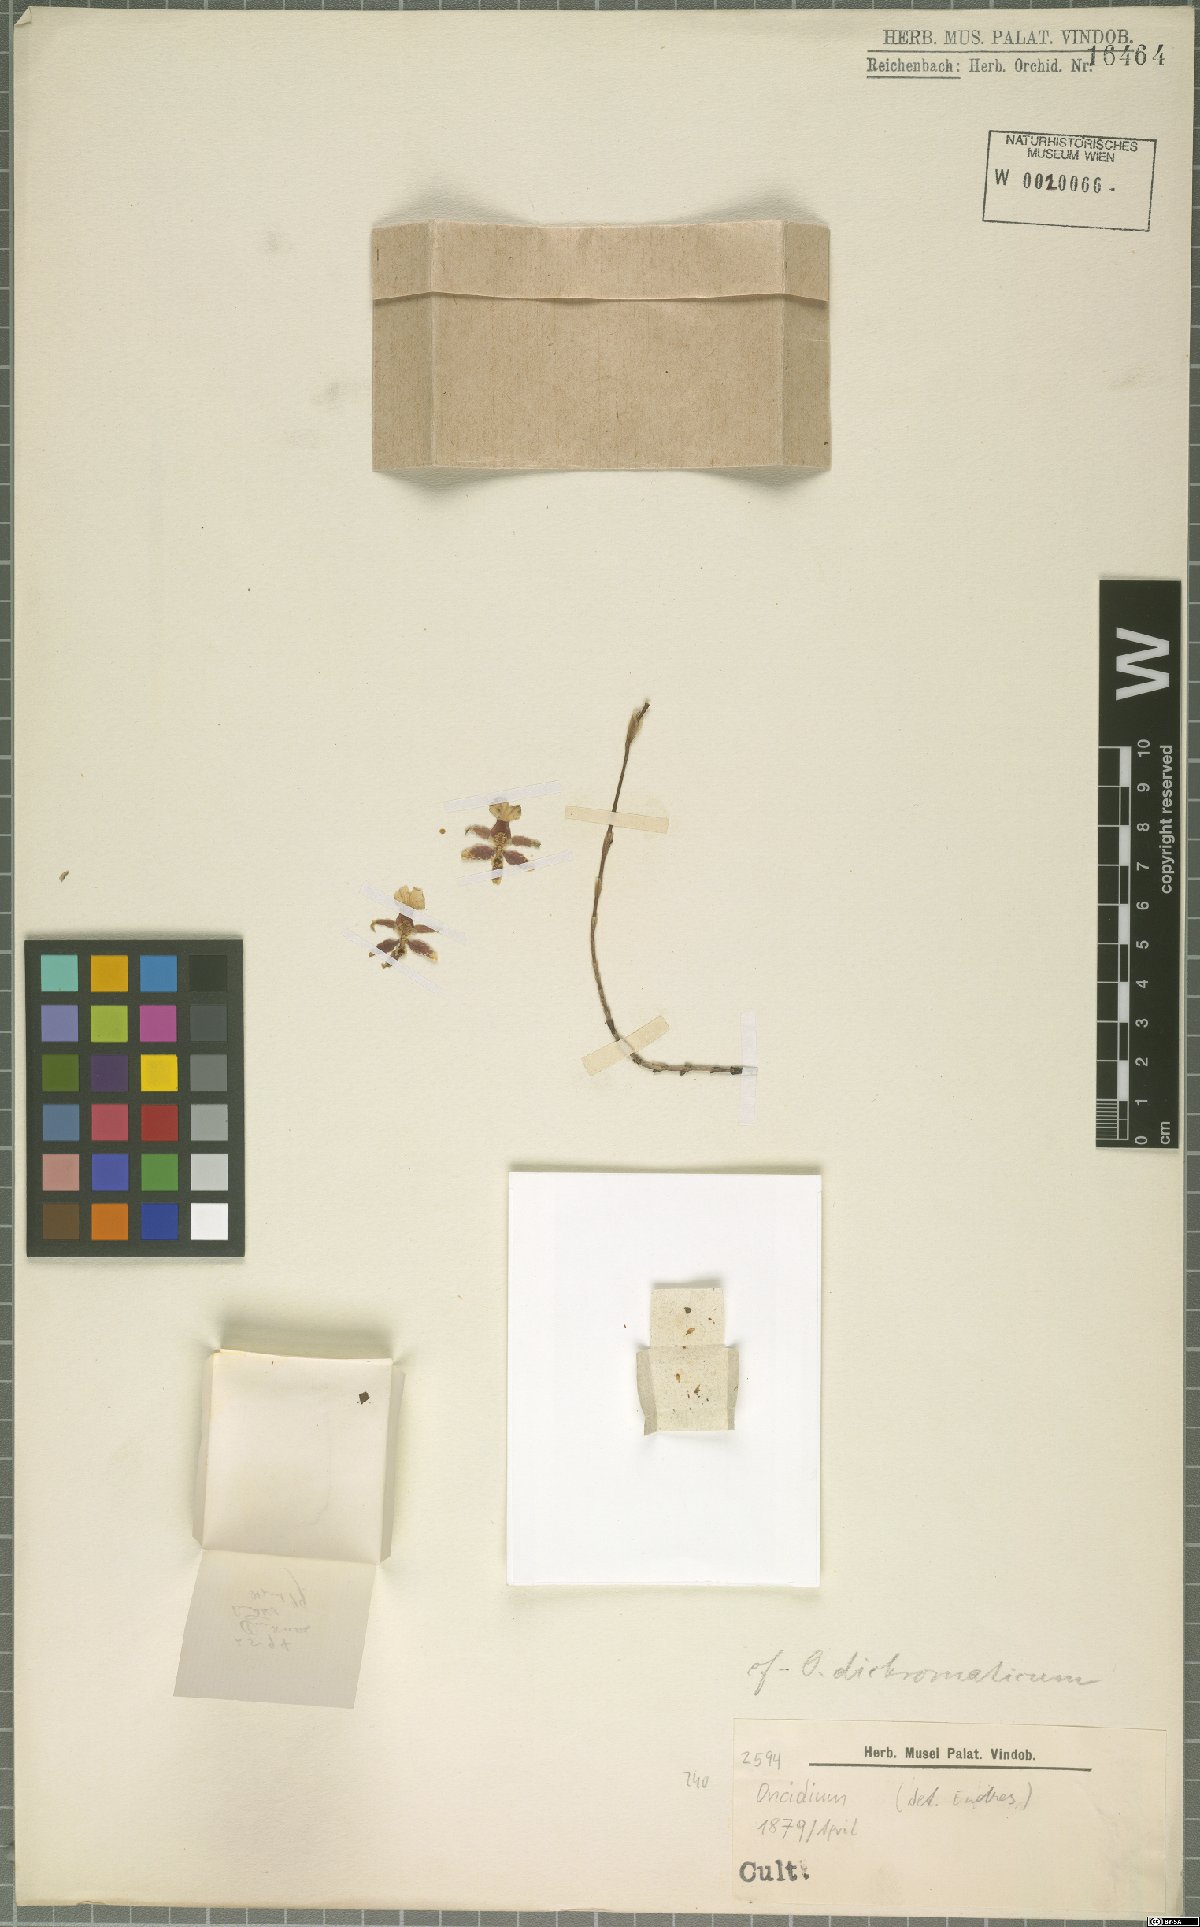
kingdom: Plantae
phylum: Tracheophyta
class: Liliopsida
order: Asparagales
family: Orchidaceae
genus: Oncidium
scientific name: Oncidium dichromaticum
